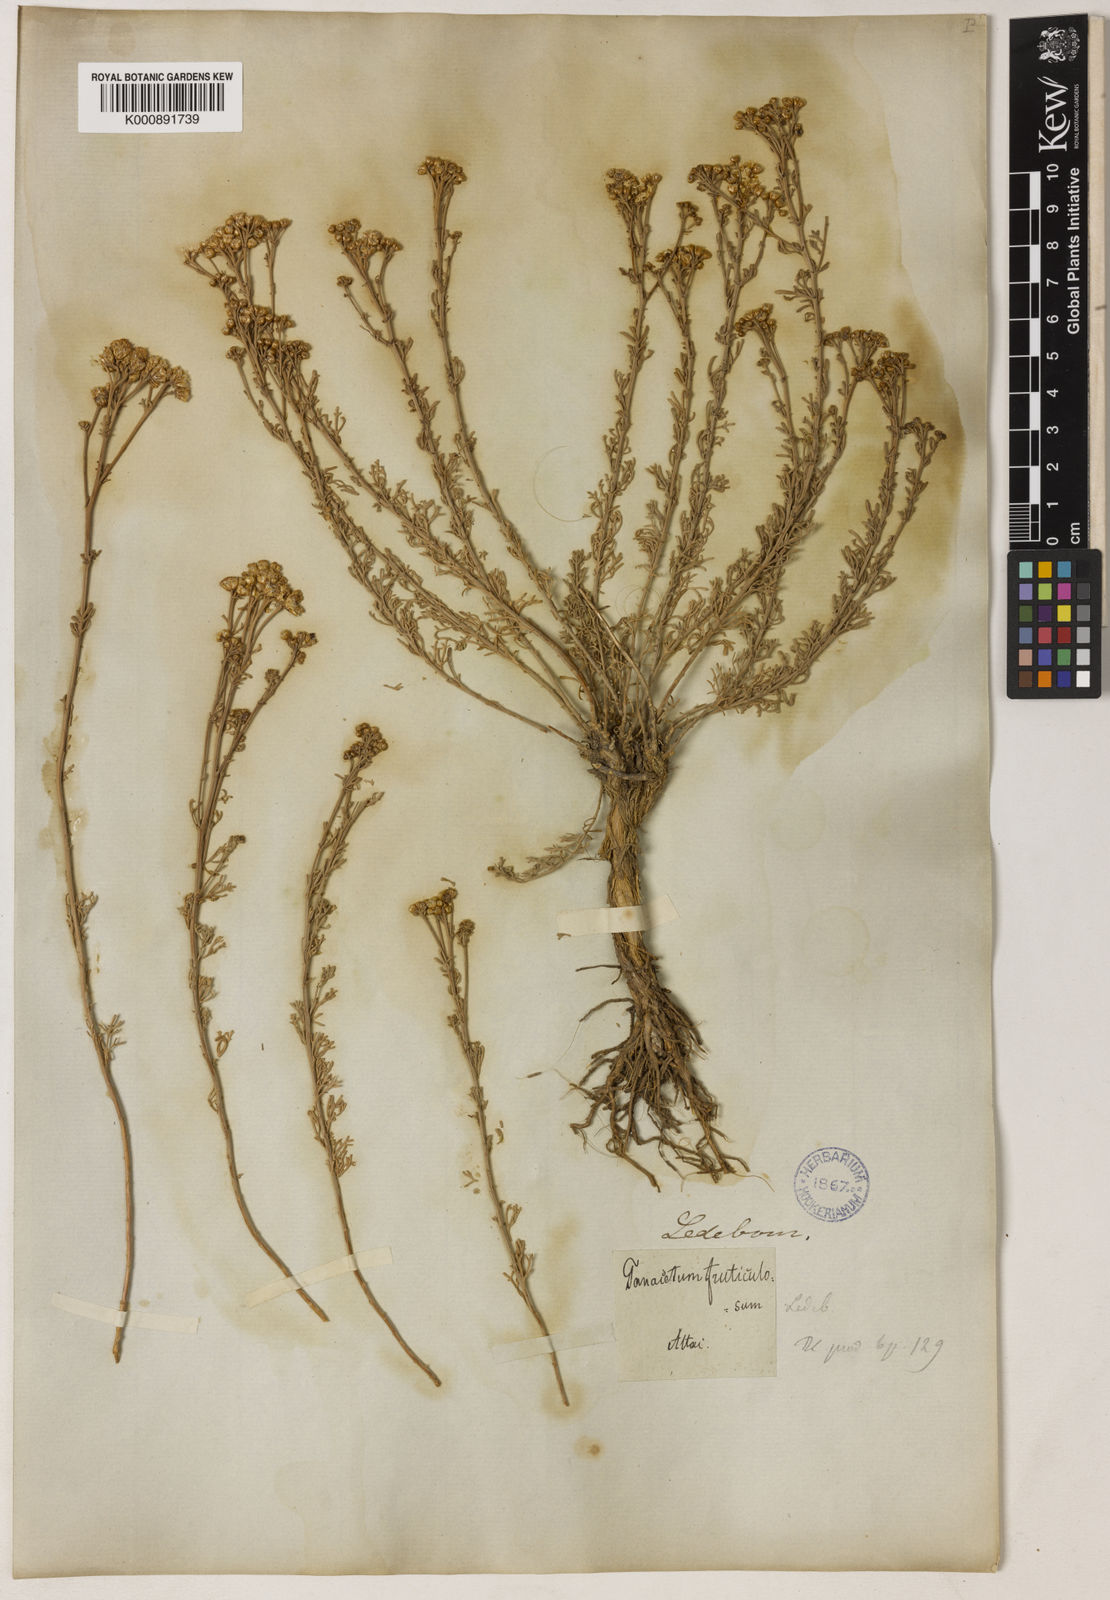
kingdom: Plantae
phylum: Tracheophyta
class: Magnoliopsida
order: Asterales
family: Asteraceae
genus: Ajania
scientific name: Ajania fruticulosa
